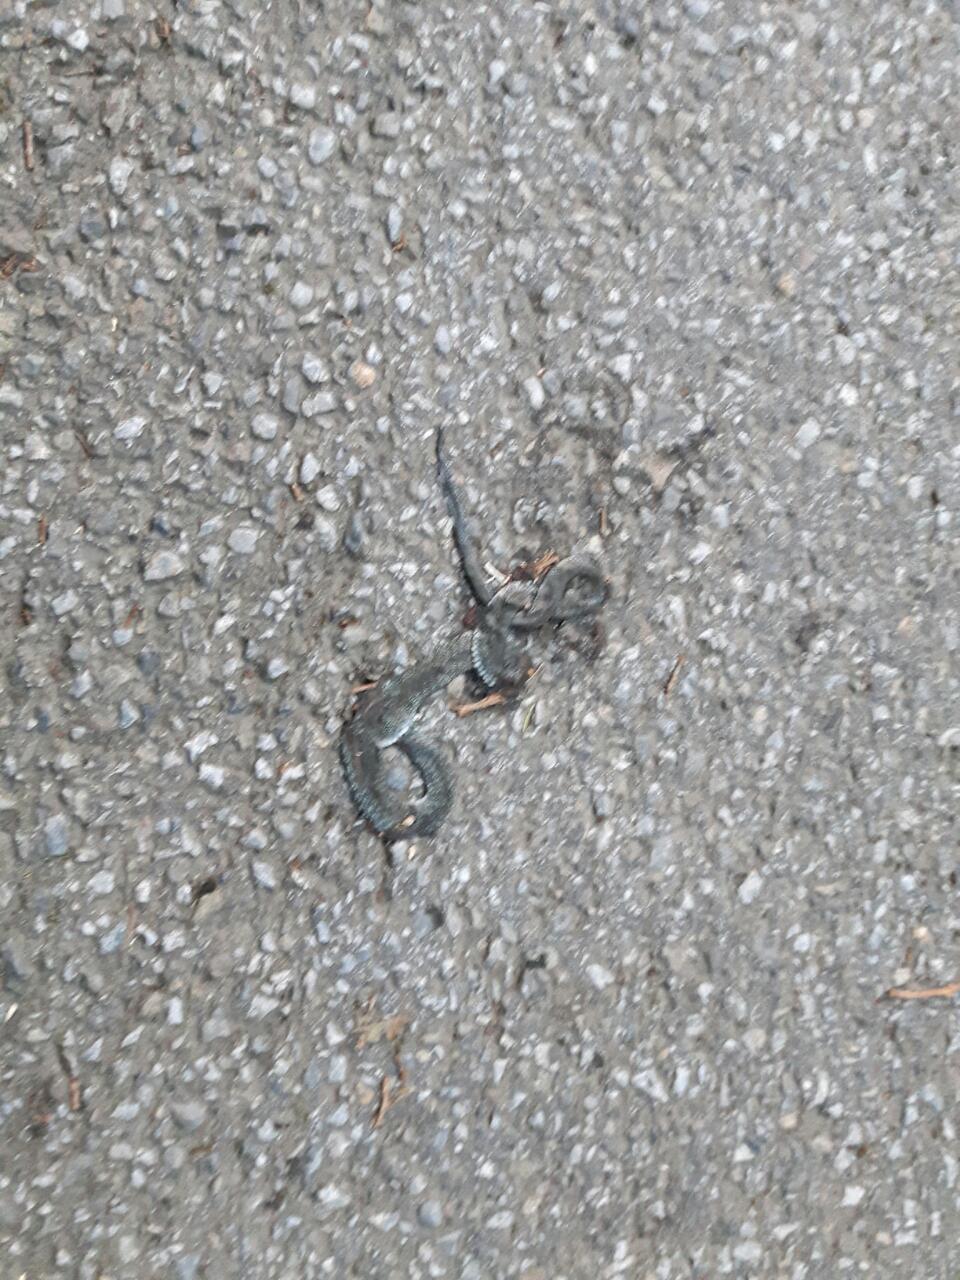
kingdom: Animalia
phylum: Chordata
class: Squamata
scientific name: Squamata
